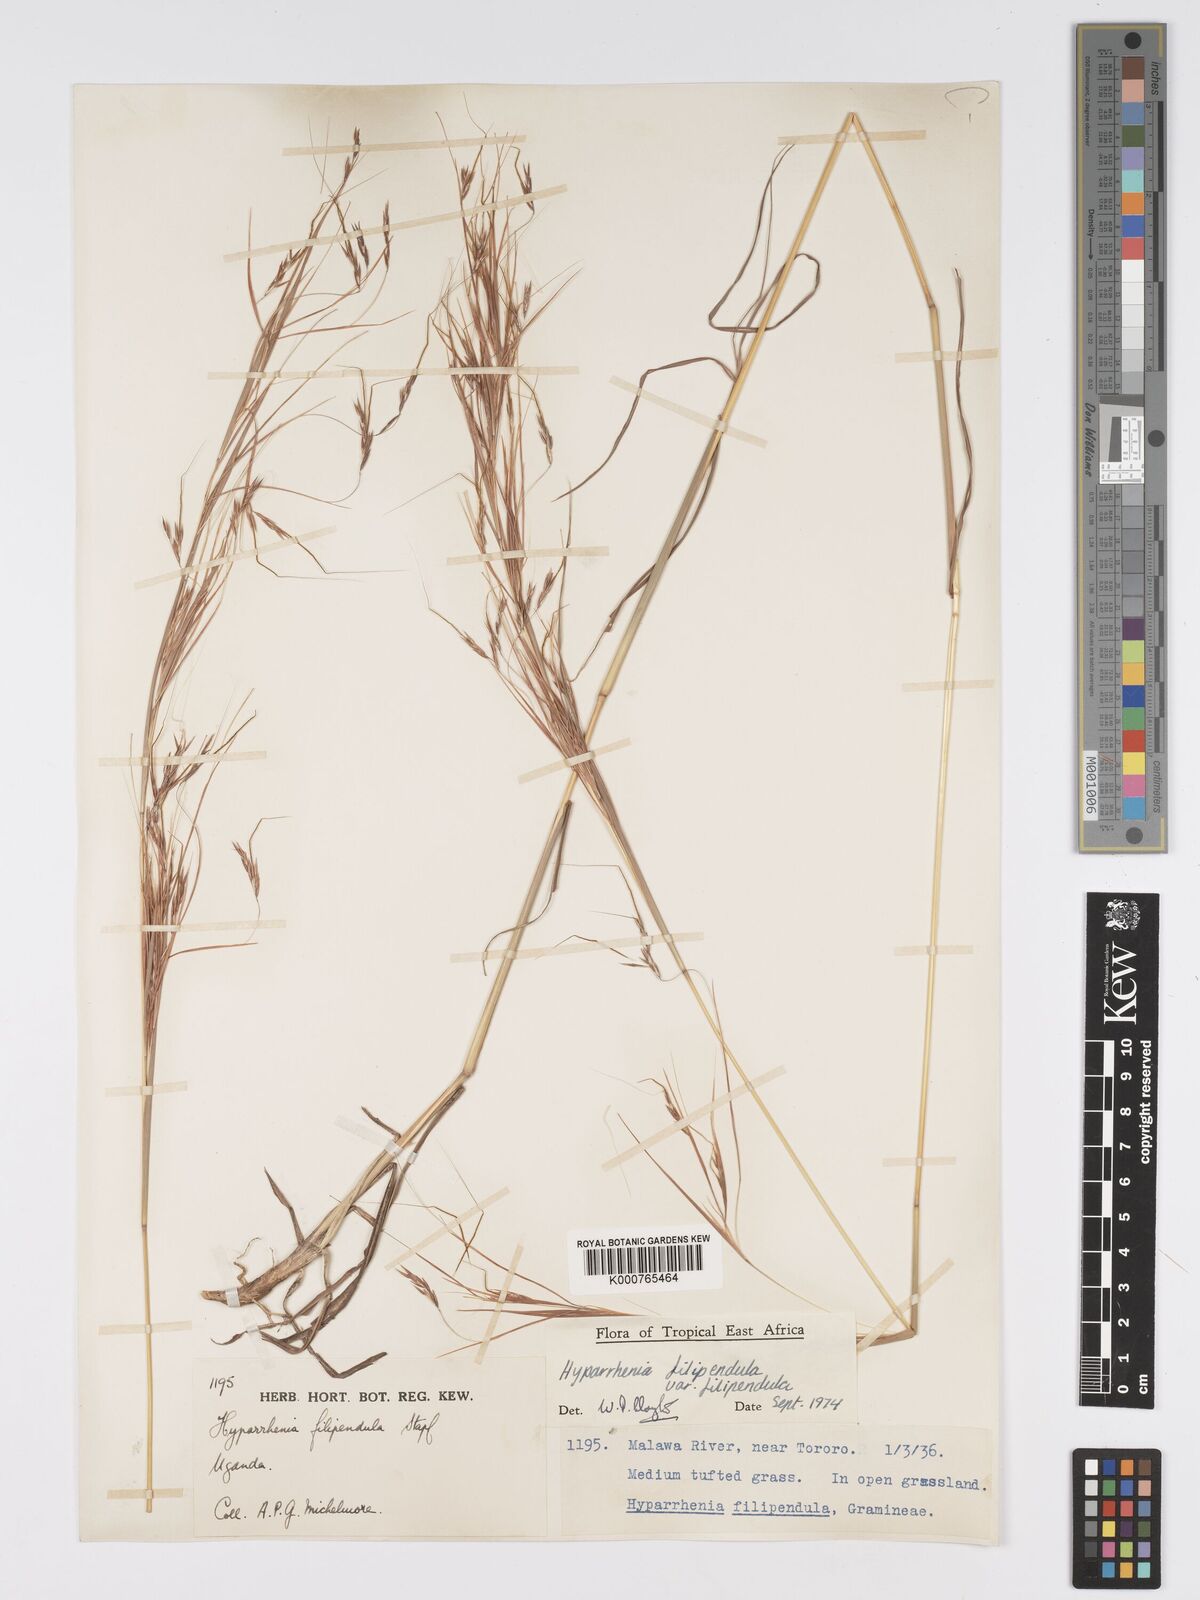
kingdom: Plantae
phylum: Tracheophyta
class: Liliopsida
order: Poales
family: Poaceae
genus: Hyparrhenia
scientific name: Hyparrhenia filipendula
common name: Tambookie grass
